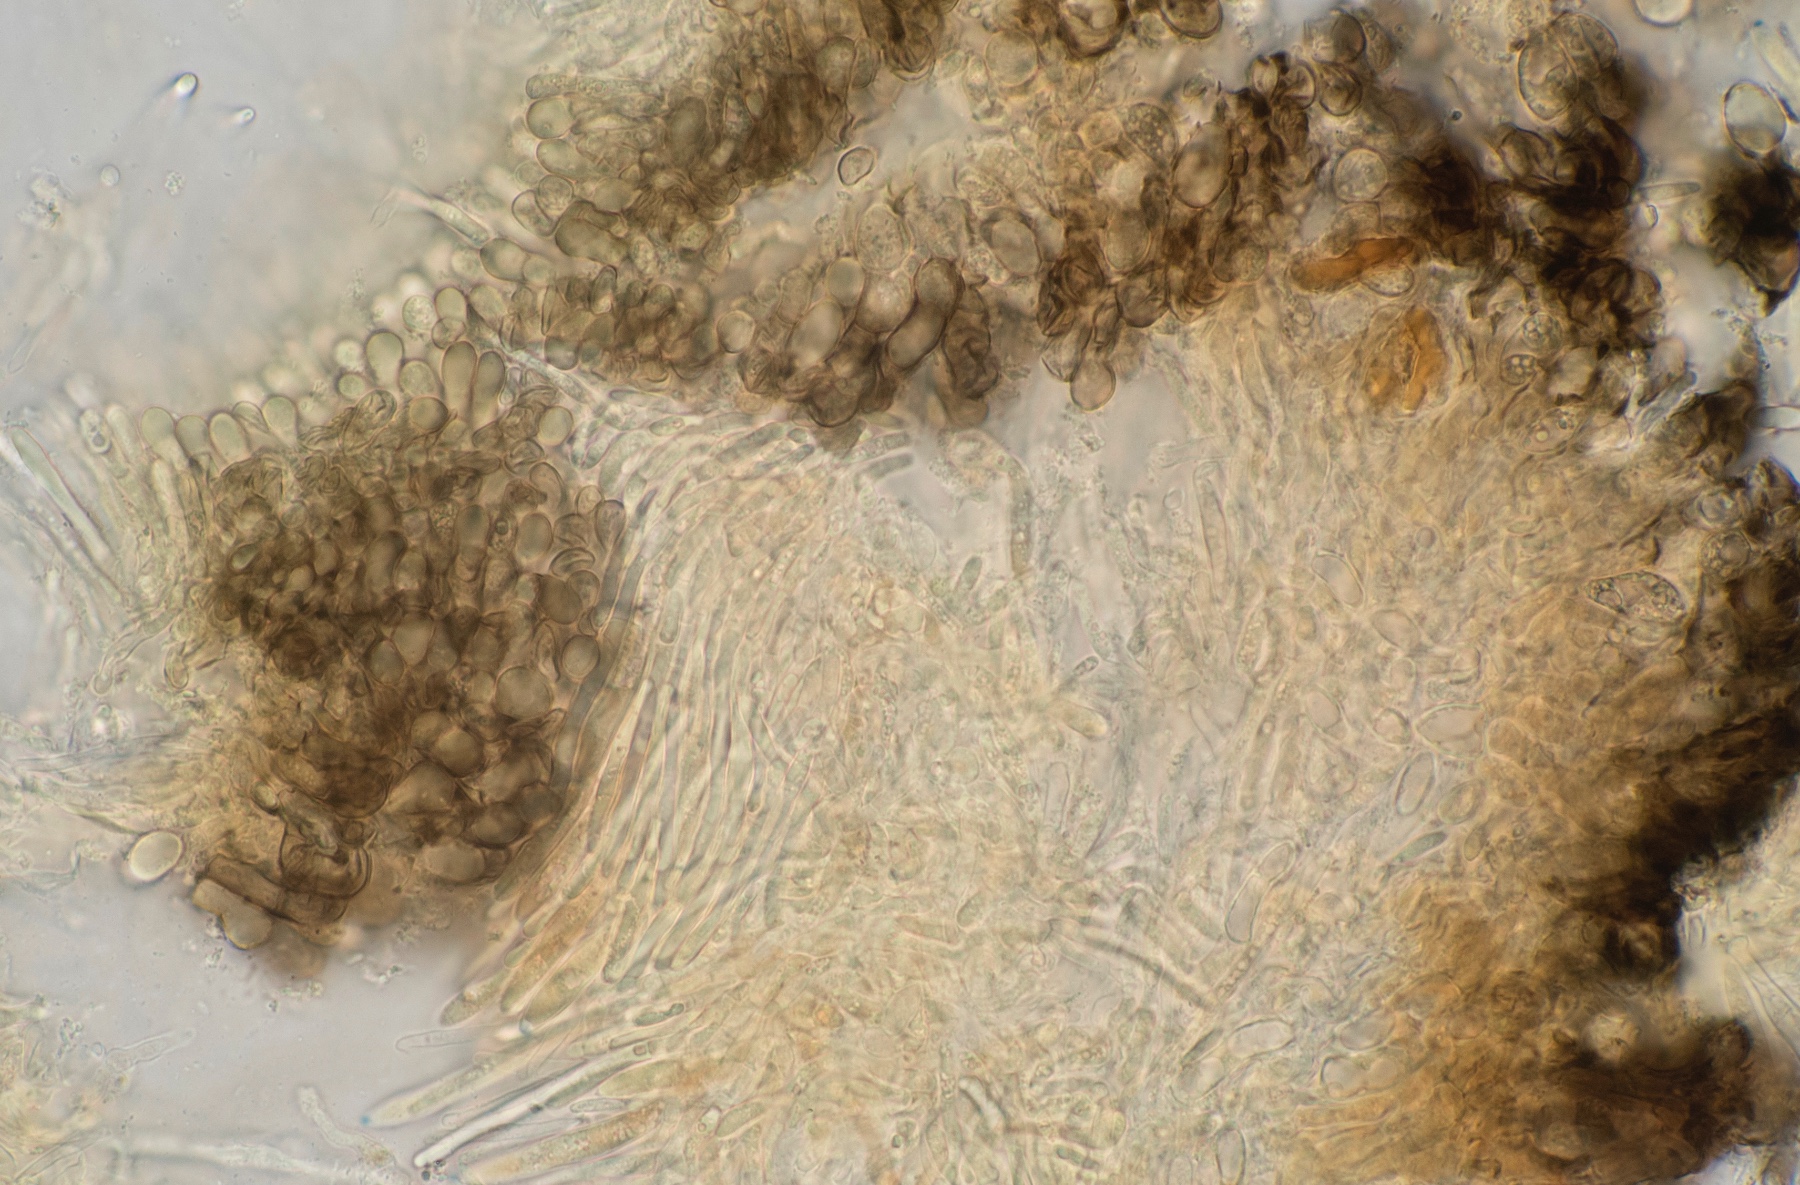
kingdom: Fungi
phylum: Ascomycota
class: Leotiomycetes
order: Helotiales
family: Mollisiaceae
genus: Tapesia
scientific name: Tapesia lividofusca
